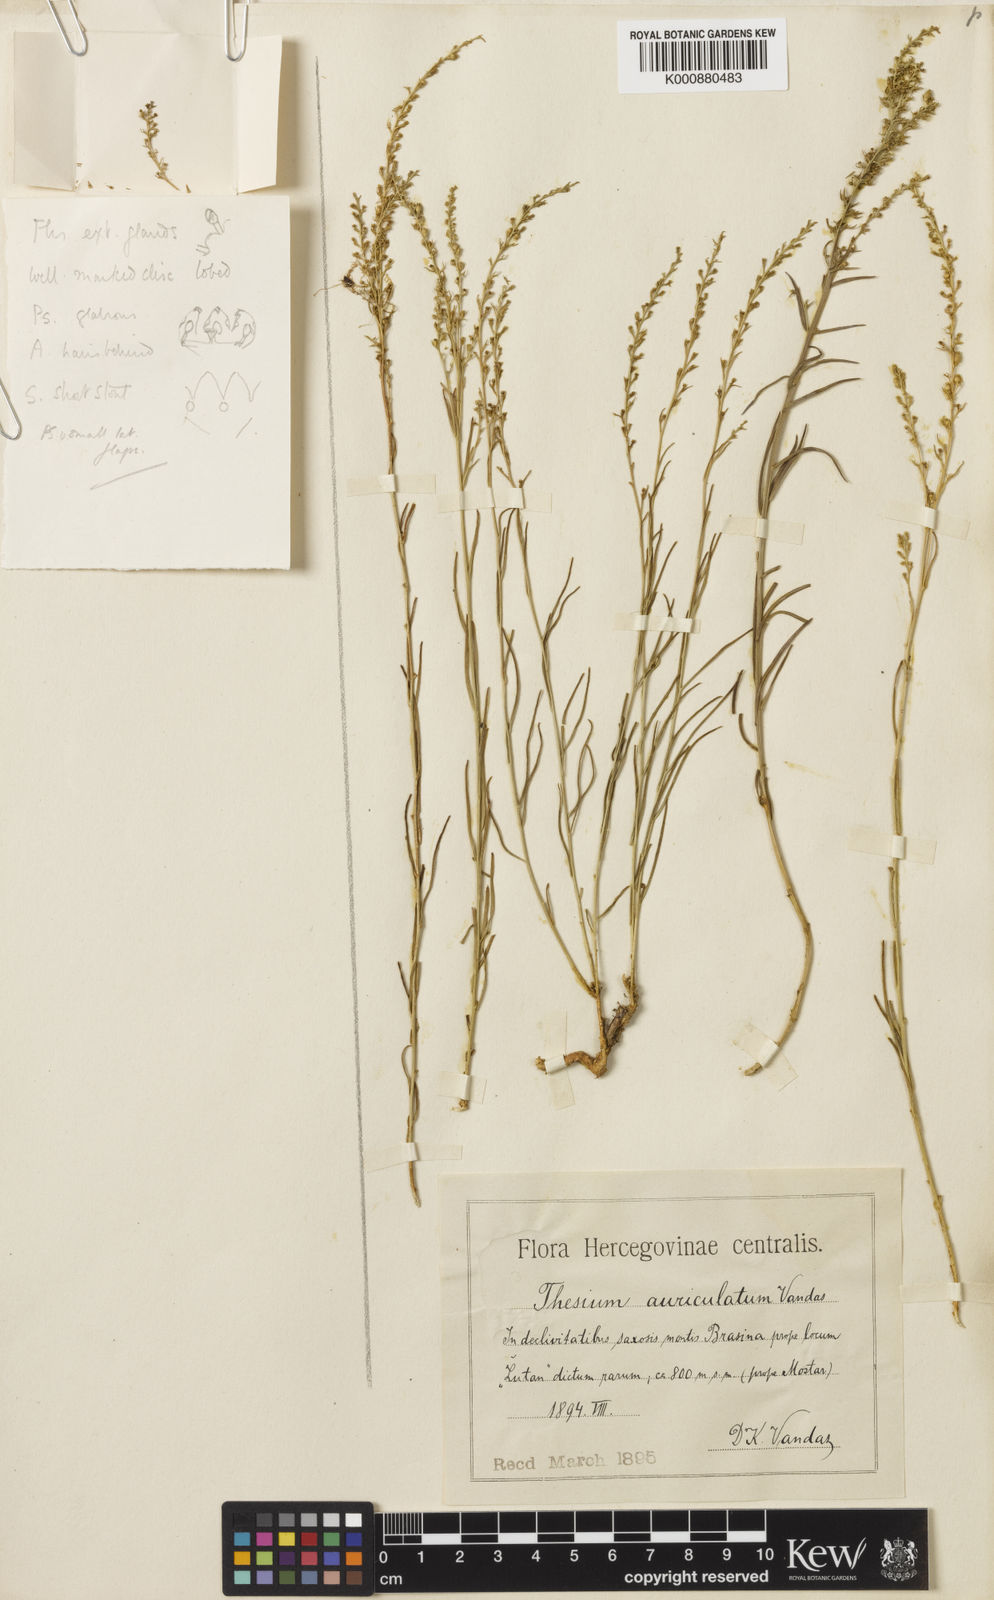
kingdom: Plantae
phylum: Tracheophyta
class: Magnoliopsida
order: Santalales
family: Thesiaceae
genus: Thesium
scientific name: Thesium auriculatum
